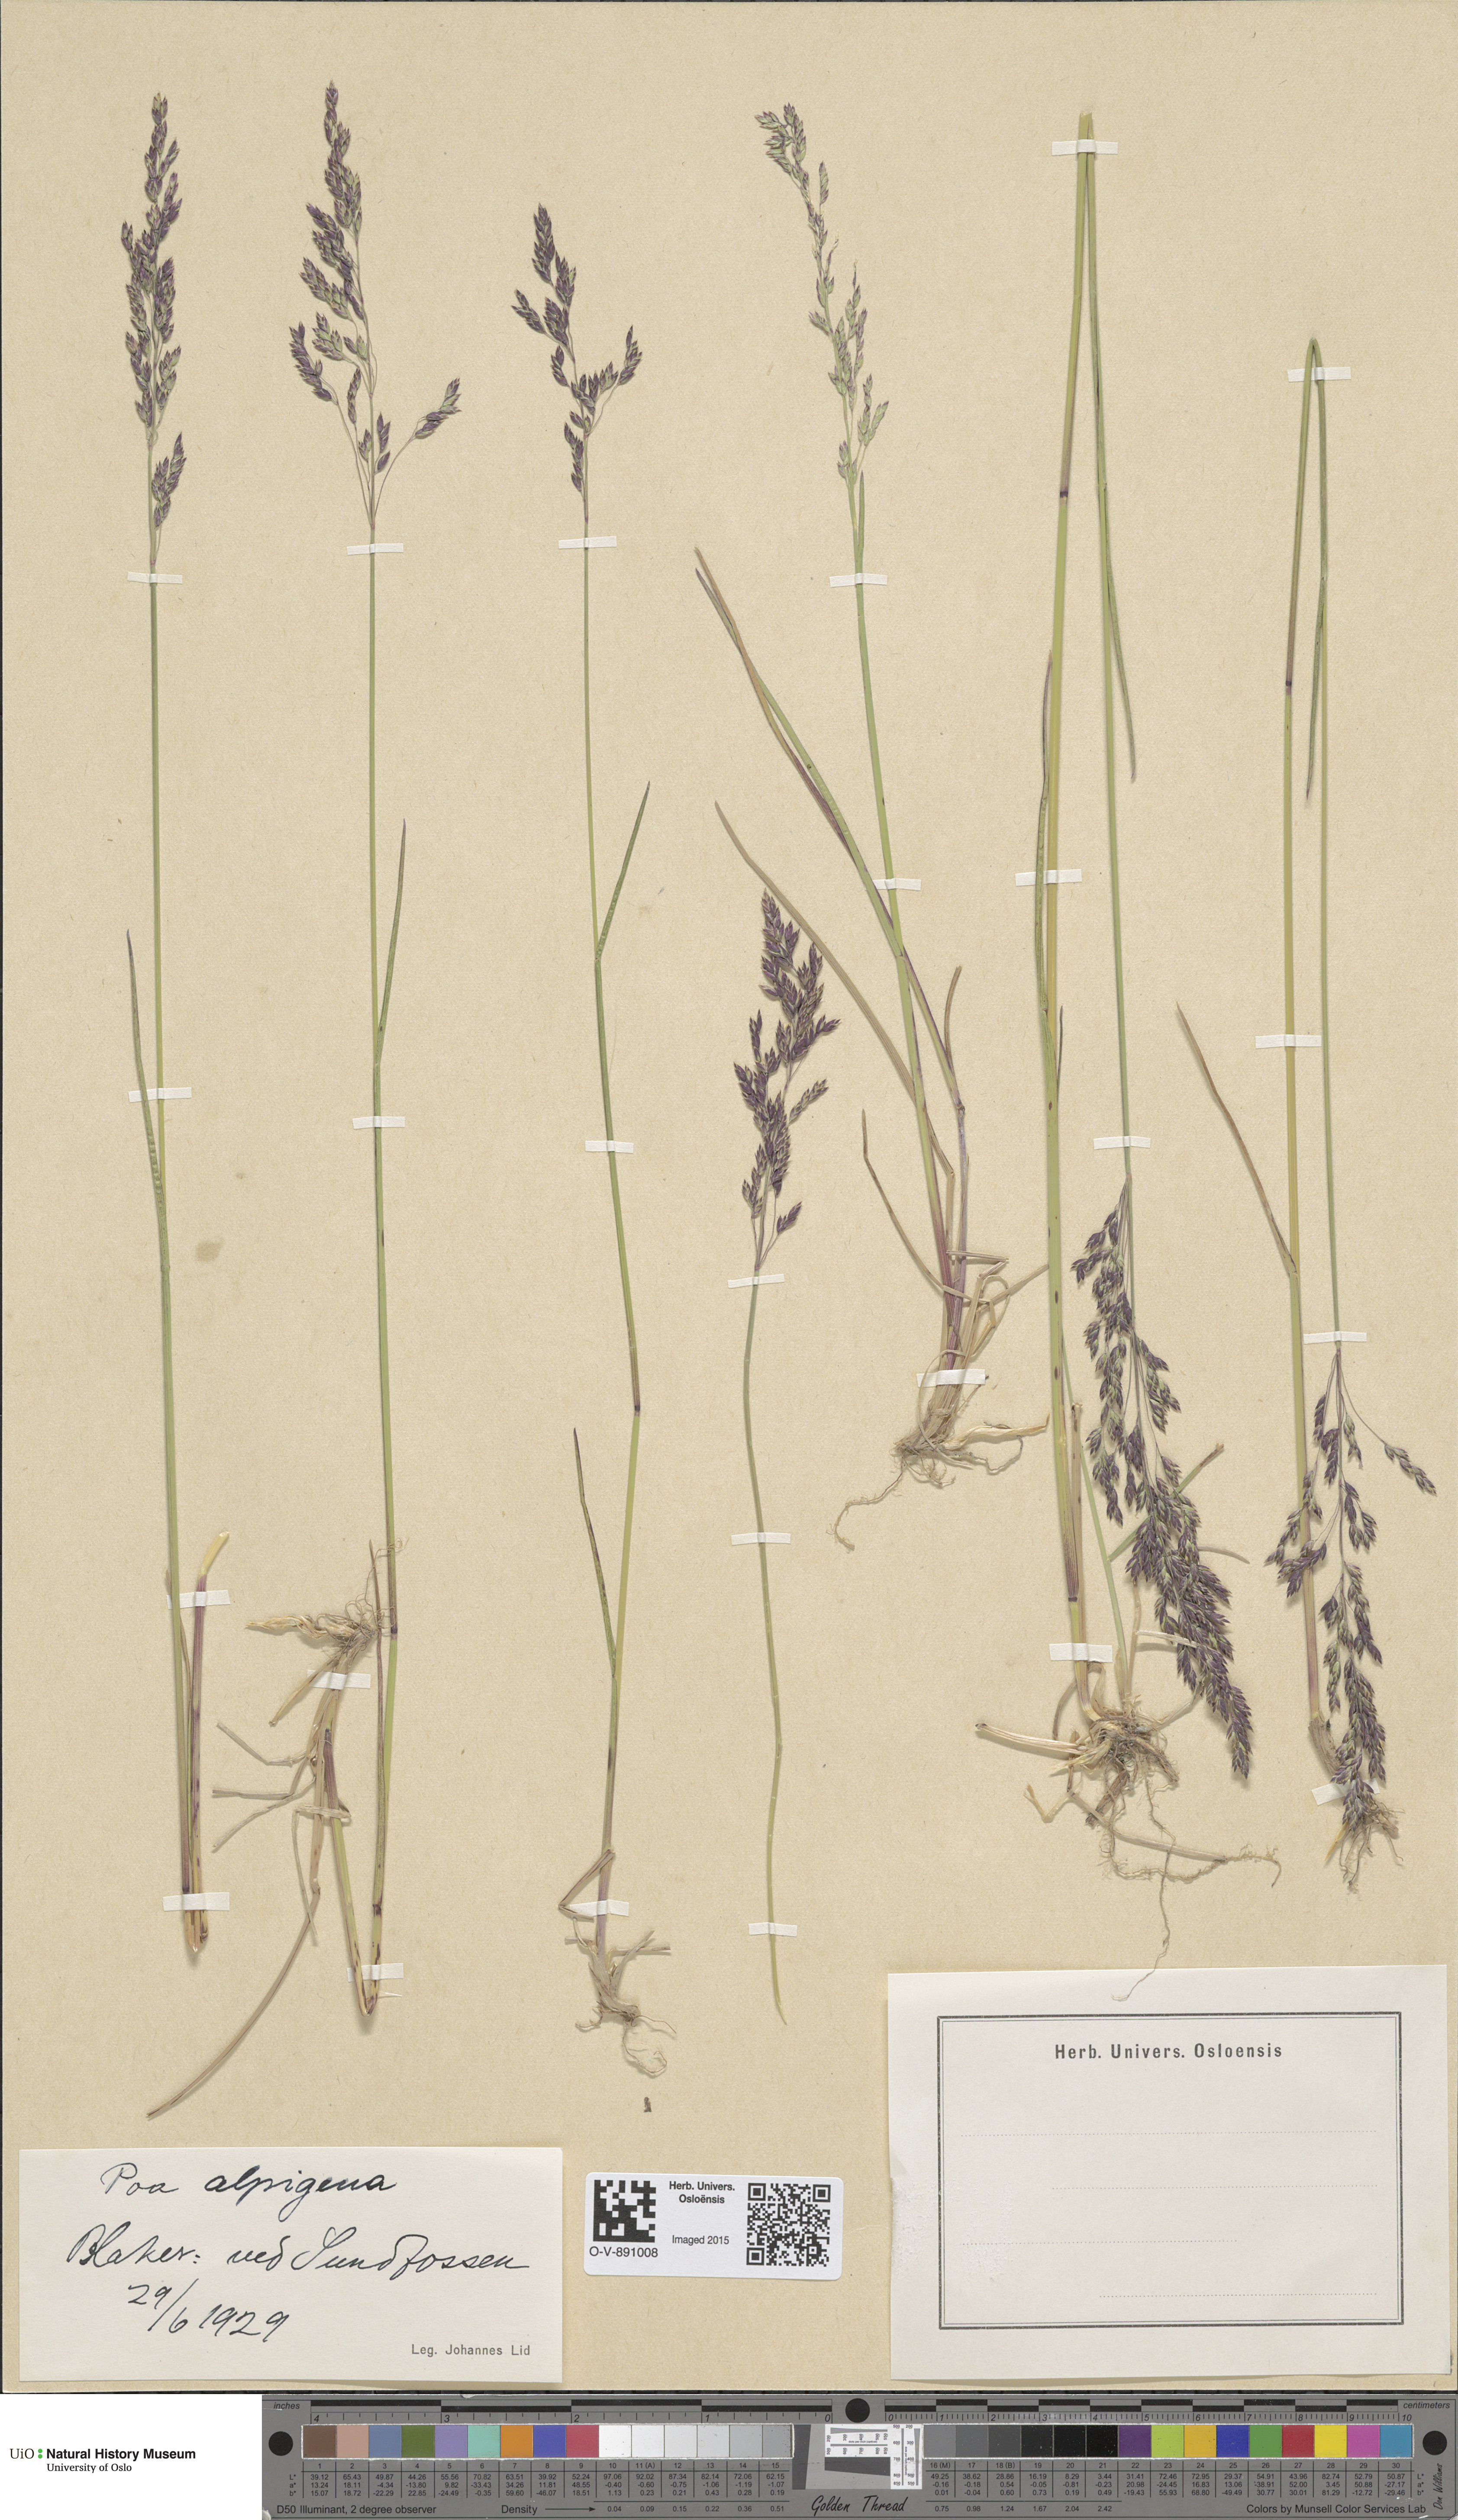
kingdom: Plantae
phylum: Tracheophyta
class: Liliopsida
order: Poales
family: Poaceae
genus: Poa
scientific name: Poa alpigena
